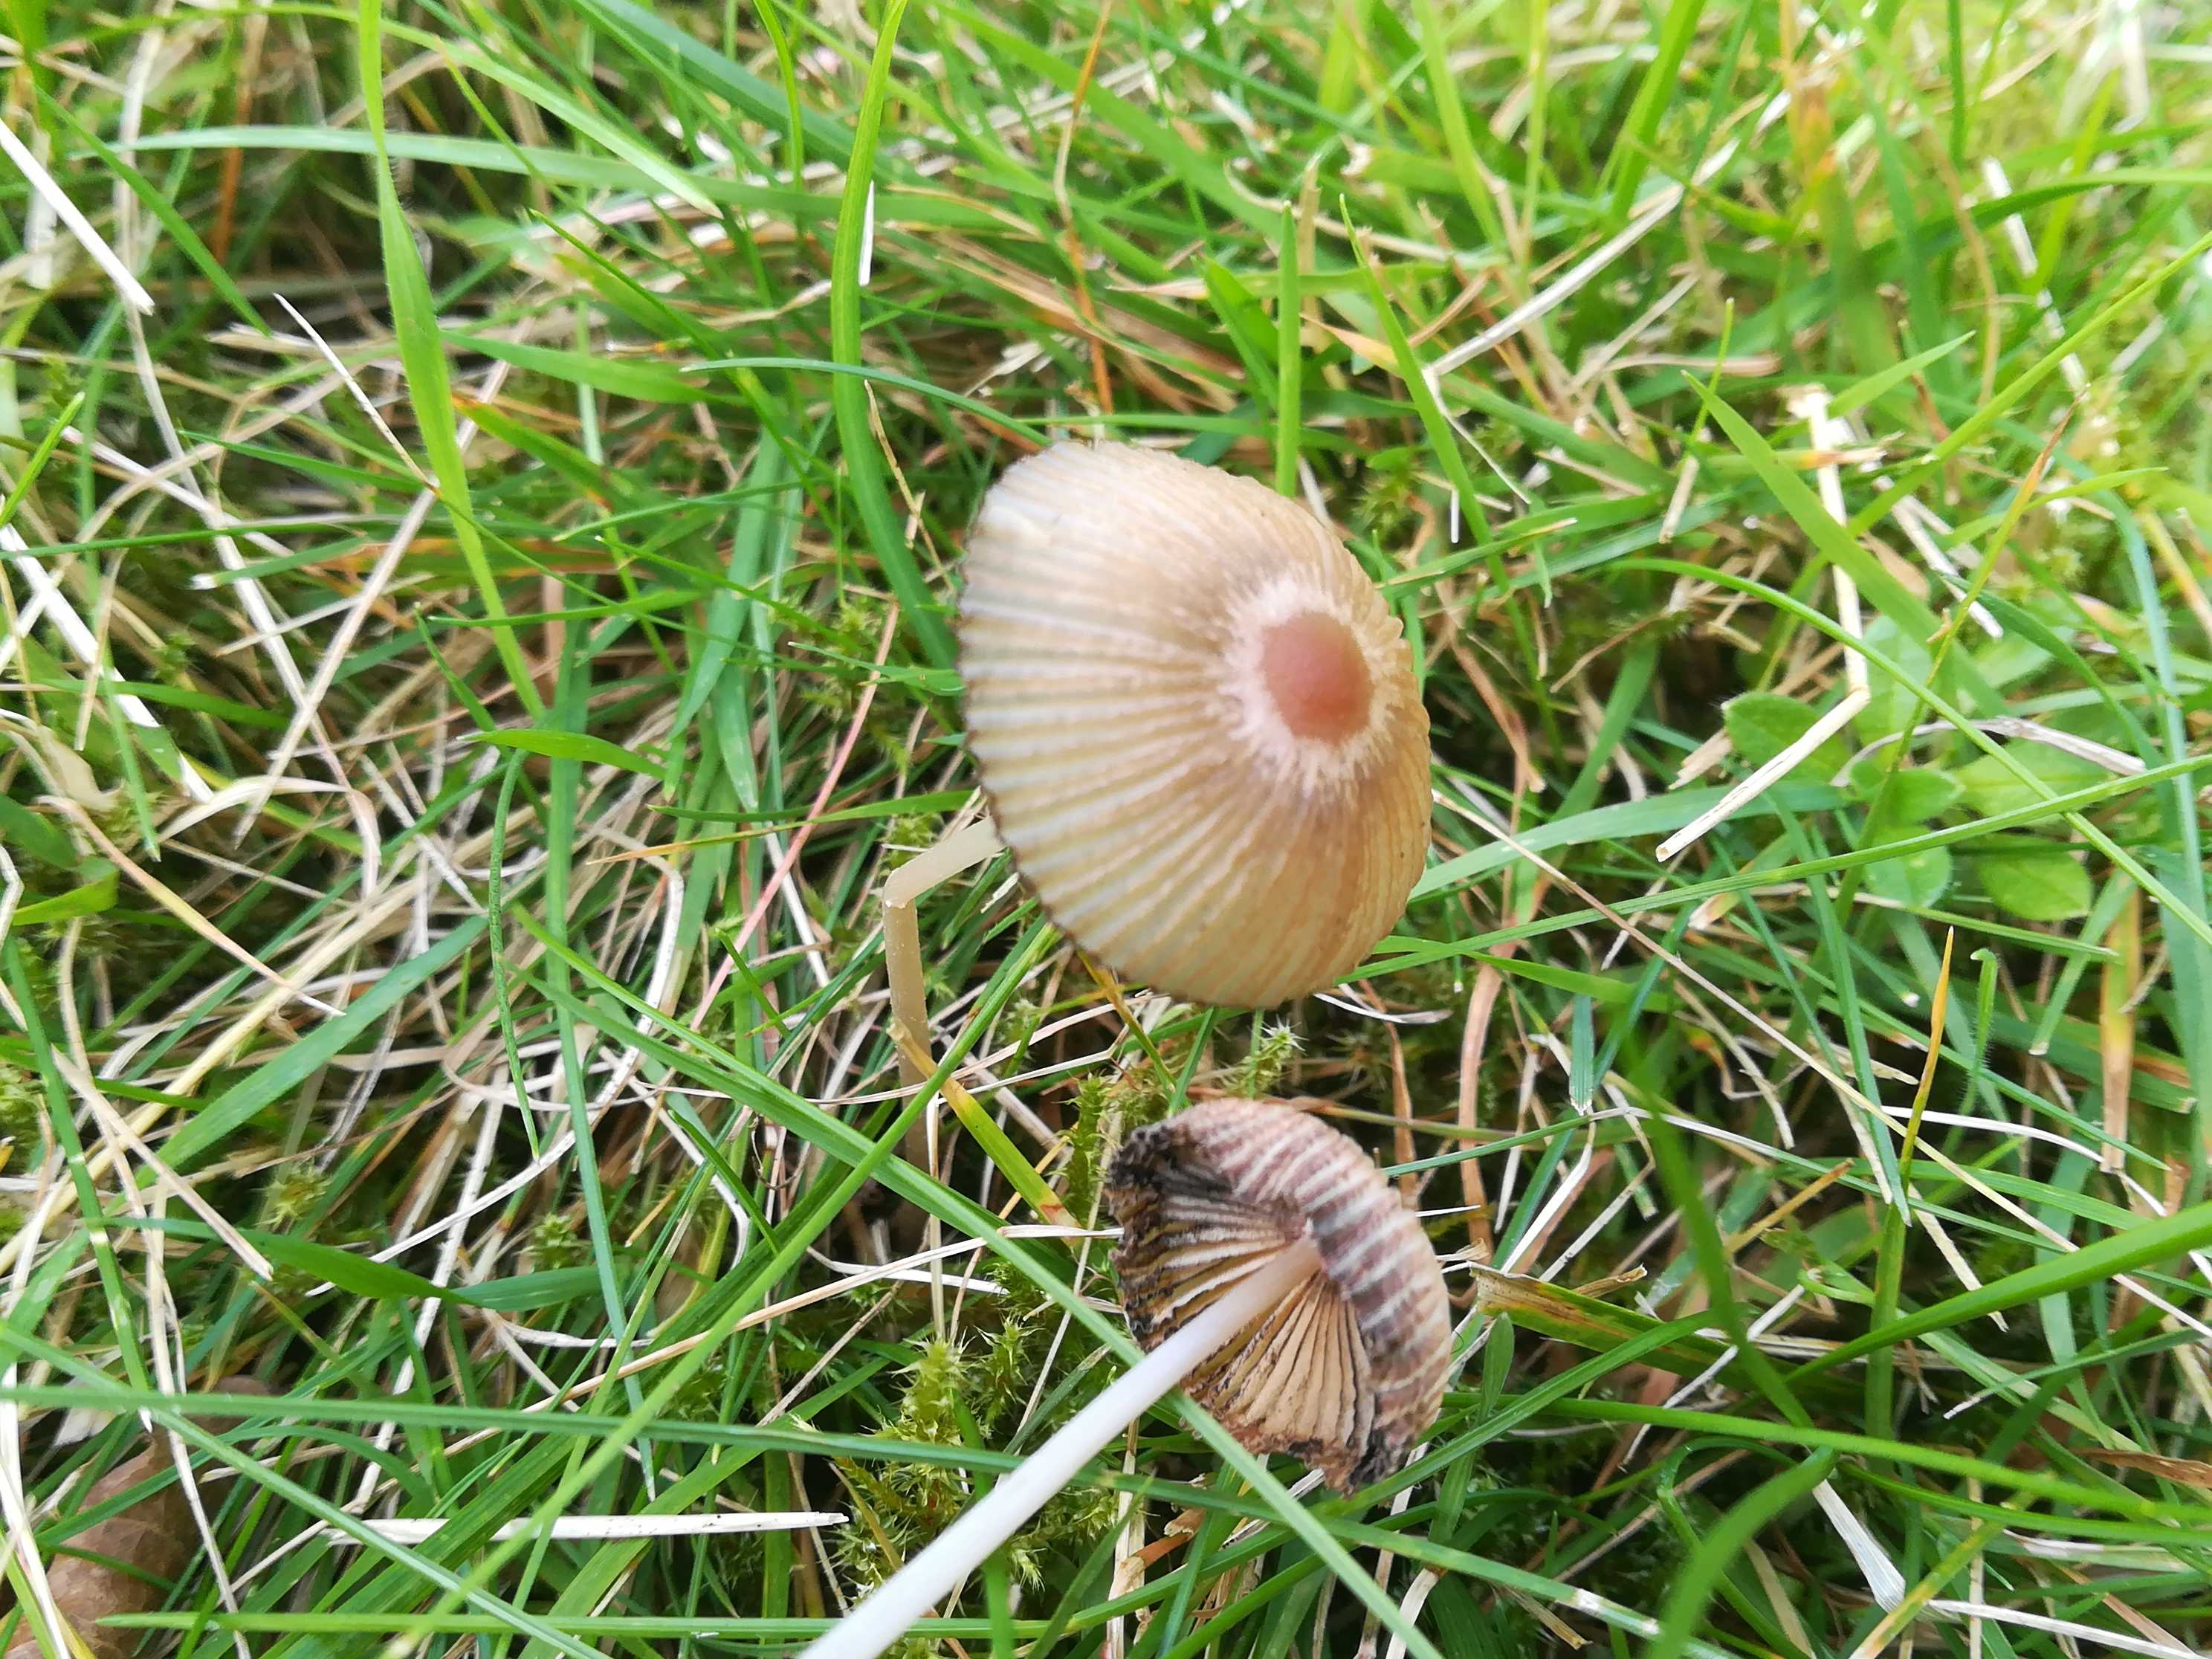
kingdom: Fungi
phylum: Basidiomycota
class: Agaricomycetes
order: Agaricales
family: Psathyrellaceae
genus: Parasola
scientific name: Parasola
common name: hjulhat
